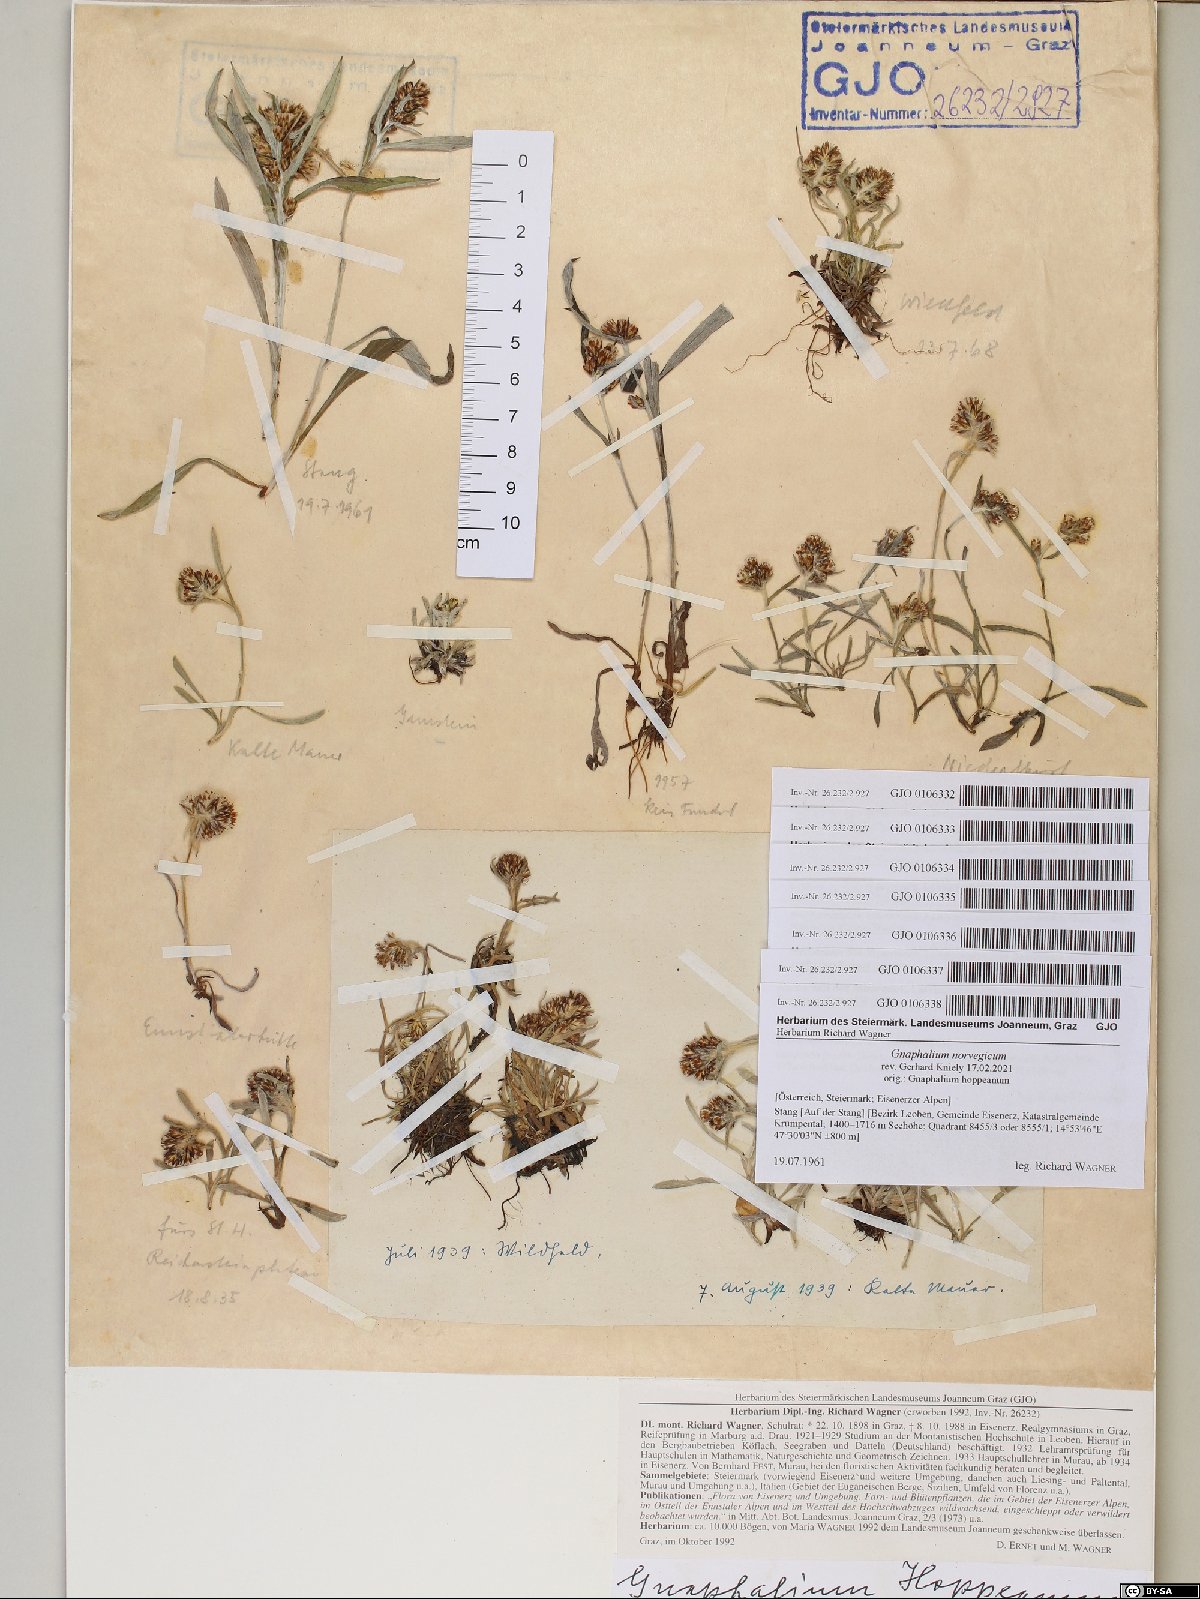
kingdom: Plantae
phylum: Tracheophyta
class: Magnoliopsida
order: Asterales
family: Asteraceae
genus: Omalotheca
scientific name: Omalotheca hoppeana
